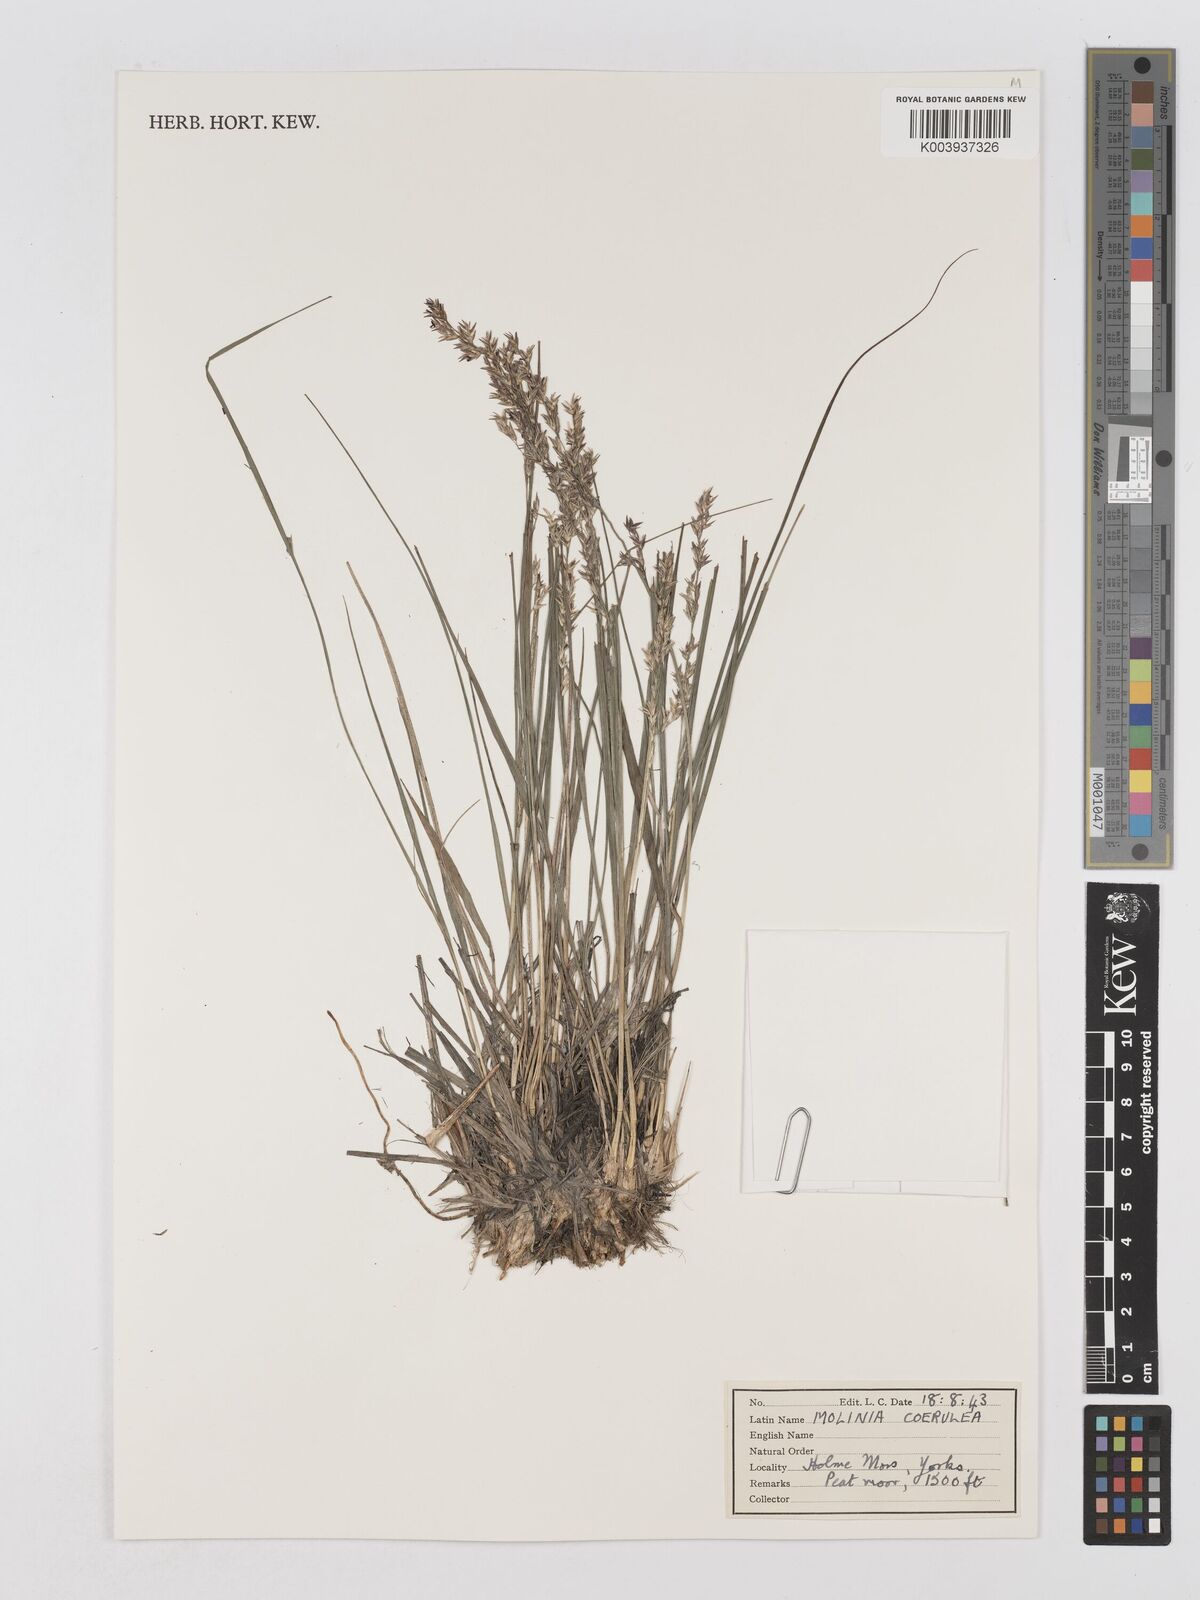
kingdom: Plantae
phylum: Tracheophyta
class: Liliopsida
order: Poales
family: Poaceae
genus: Molinia
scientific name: Molinia caerulea
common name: Purple moor-grass
